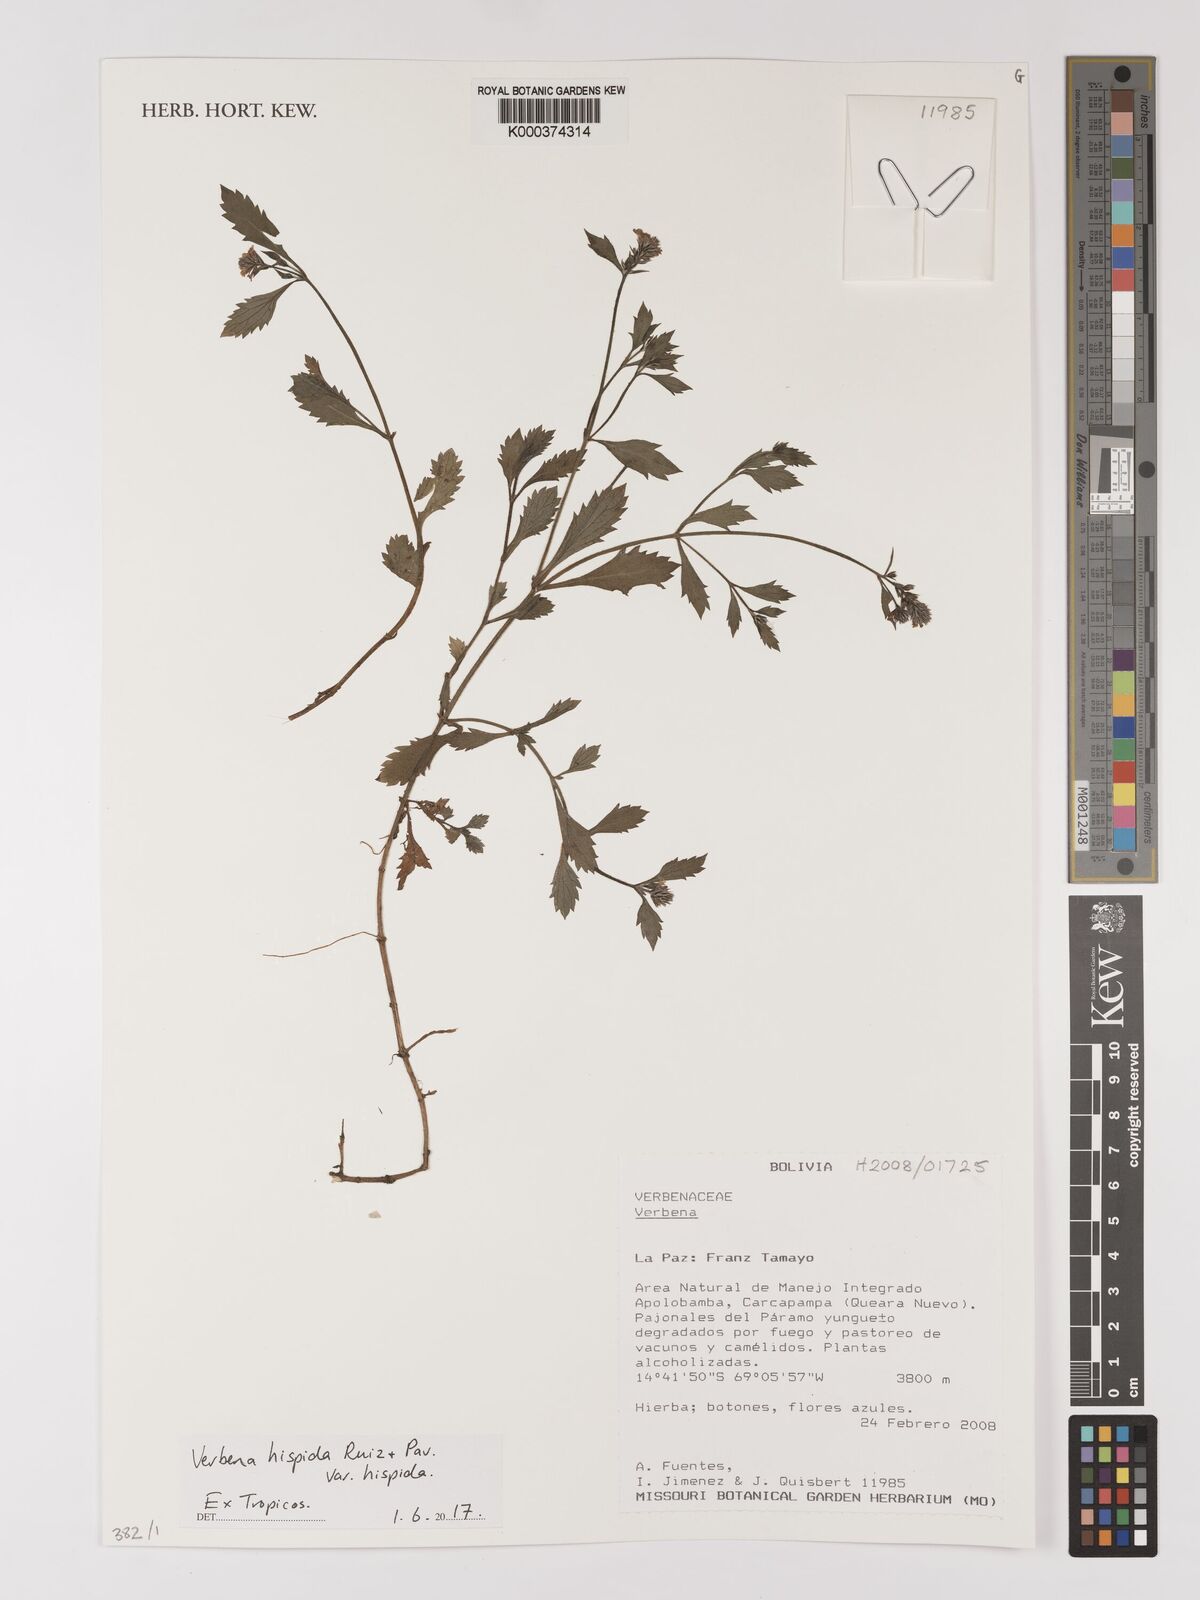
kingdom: Plantae
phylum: Tracheophyta
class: Magnoliopsida
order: Lamiales
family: Verbenaceae
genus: Verbena
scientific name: Verbena hispida
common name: Hairy vervain
